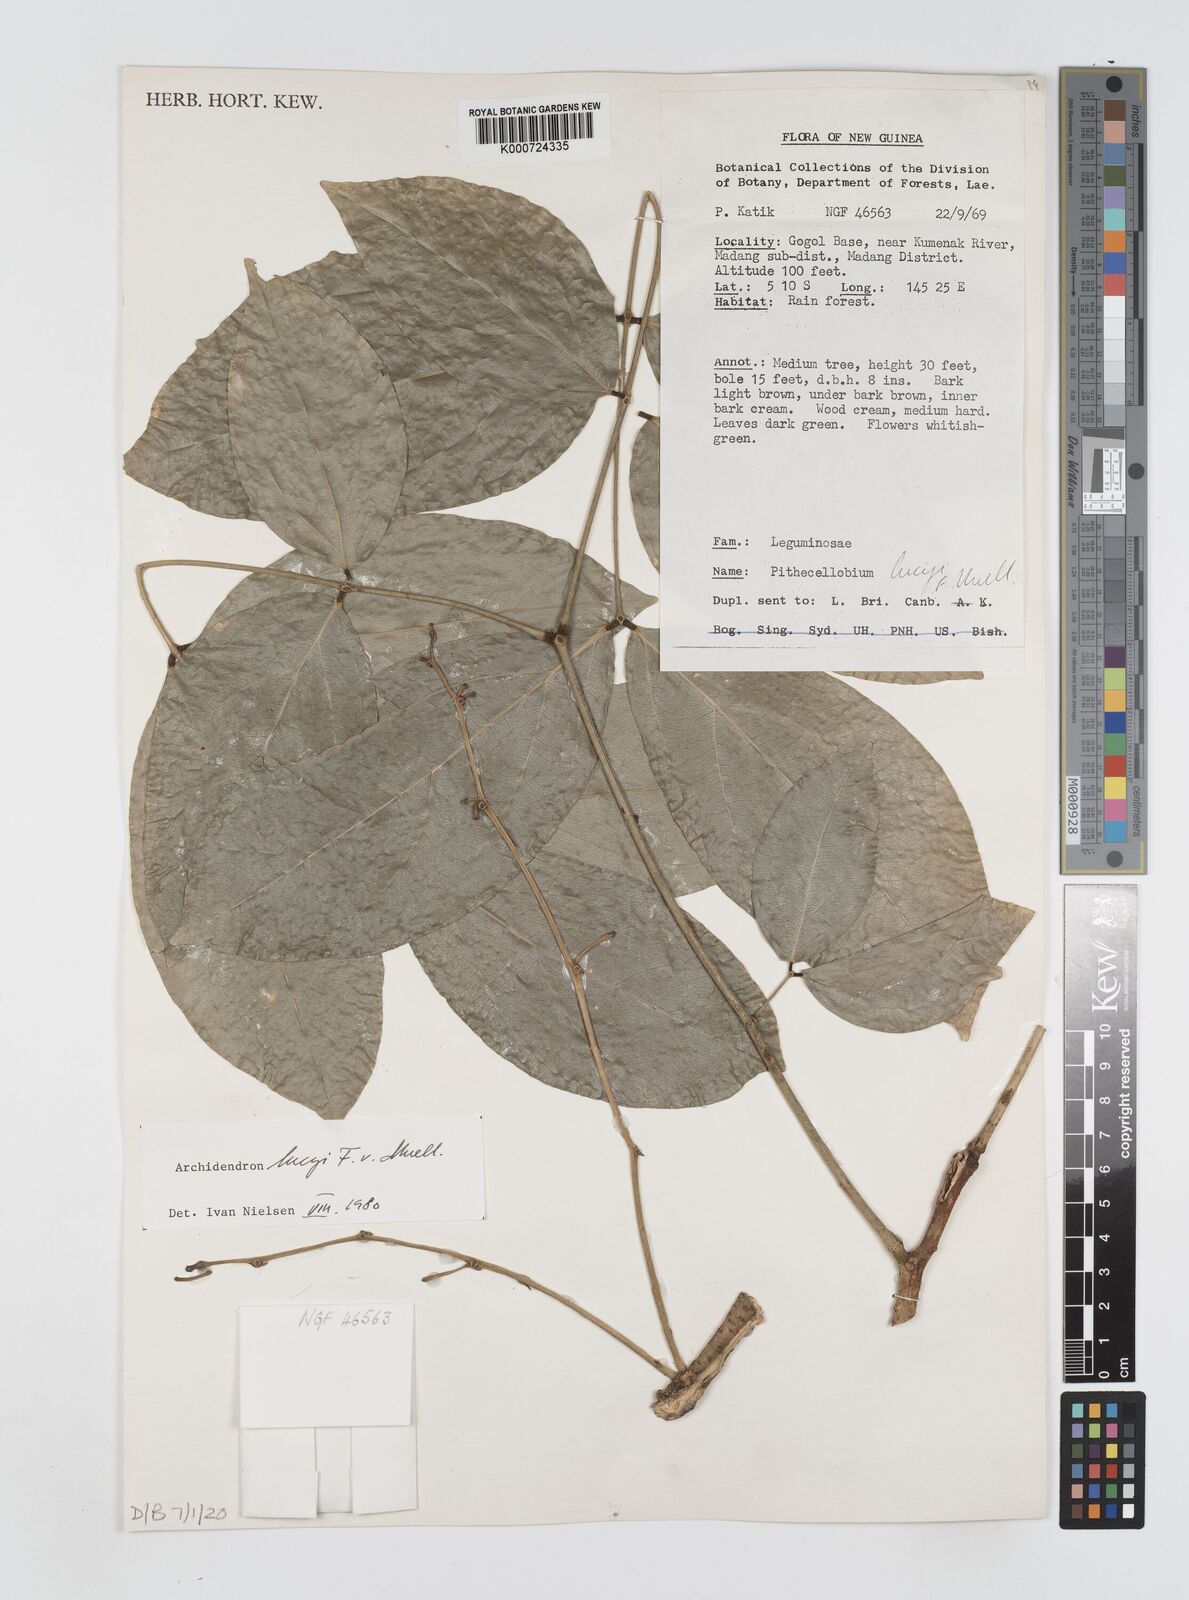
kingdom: Plantae
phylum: Tracheophyta
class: Magnoliopsida
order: Fabales
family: Fabaceae
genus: Archidendron
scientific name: Archidendron lucyi
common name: Scarlet bean
